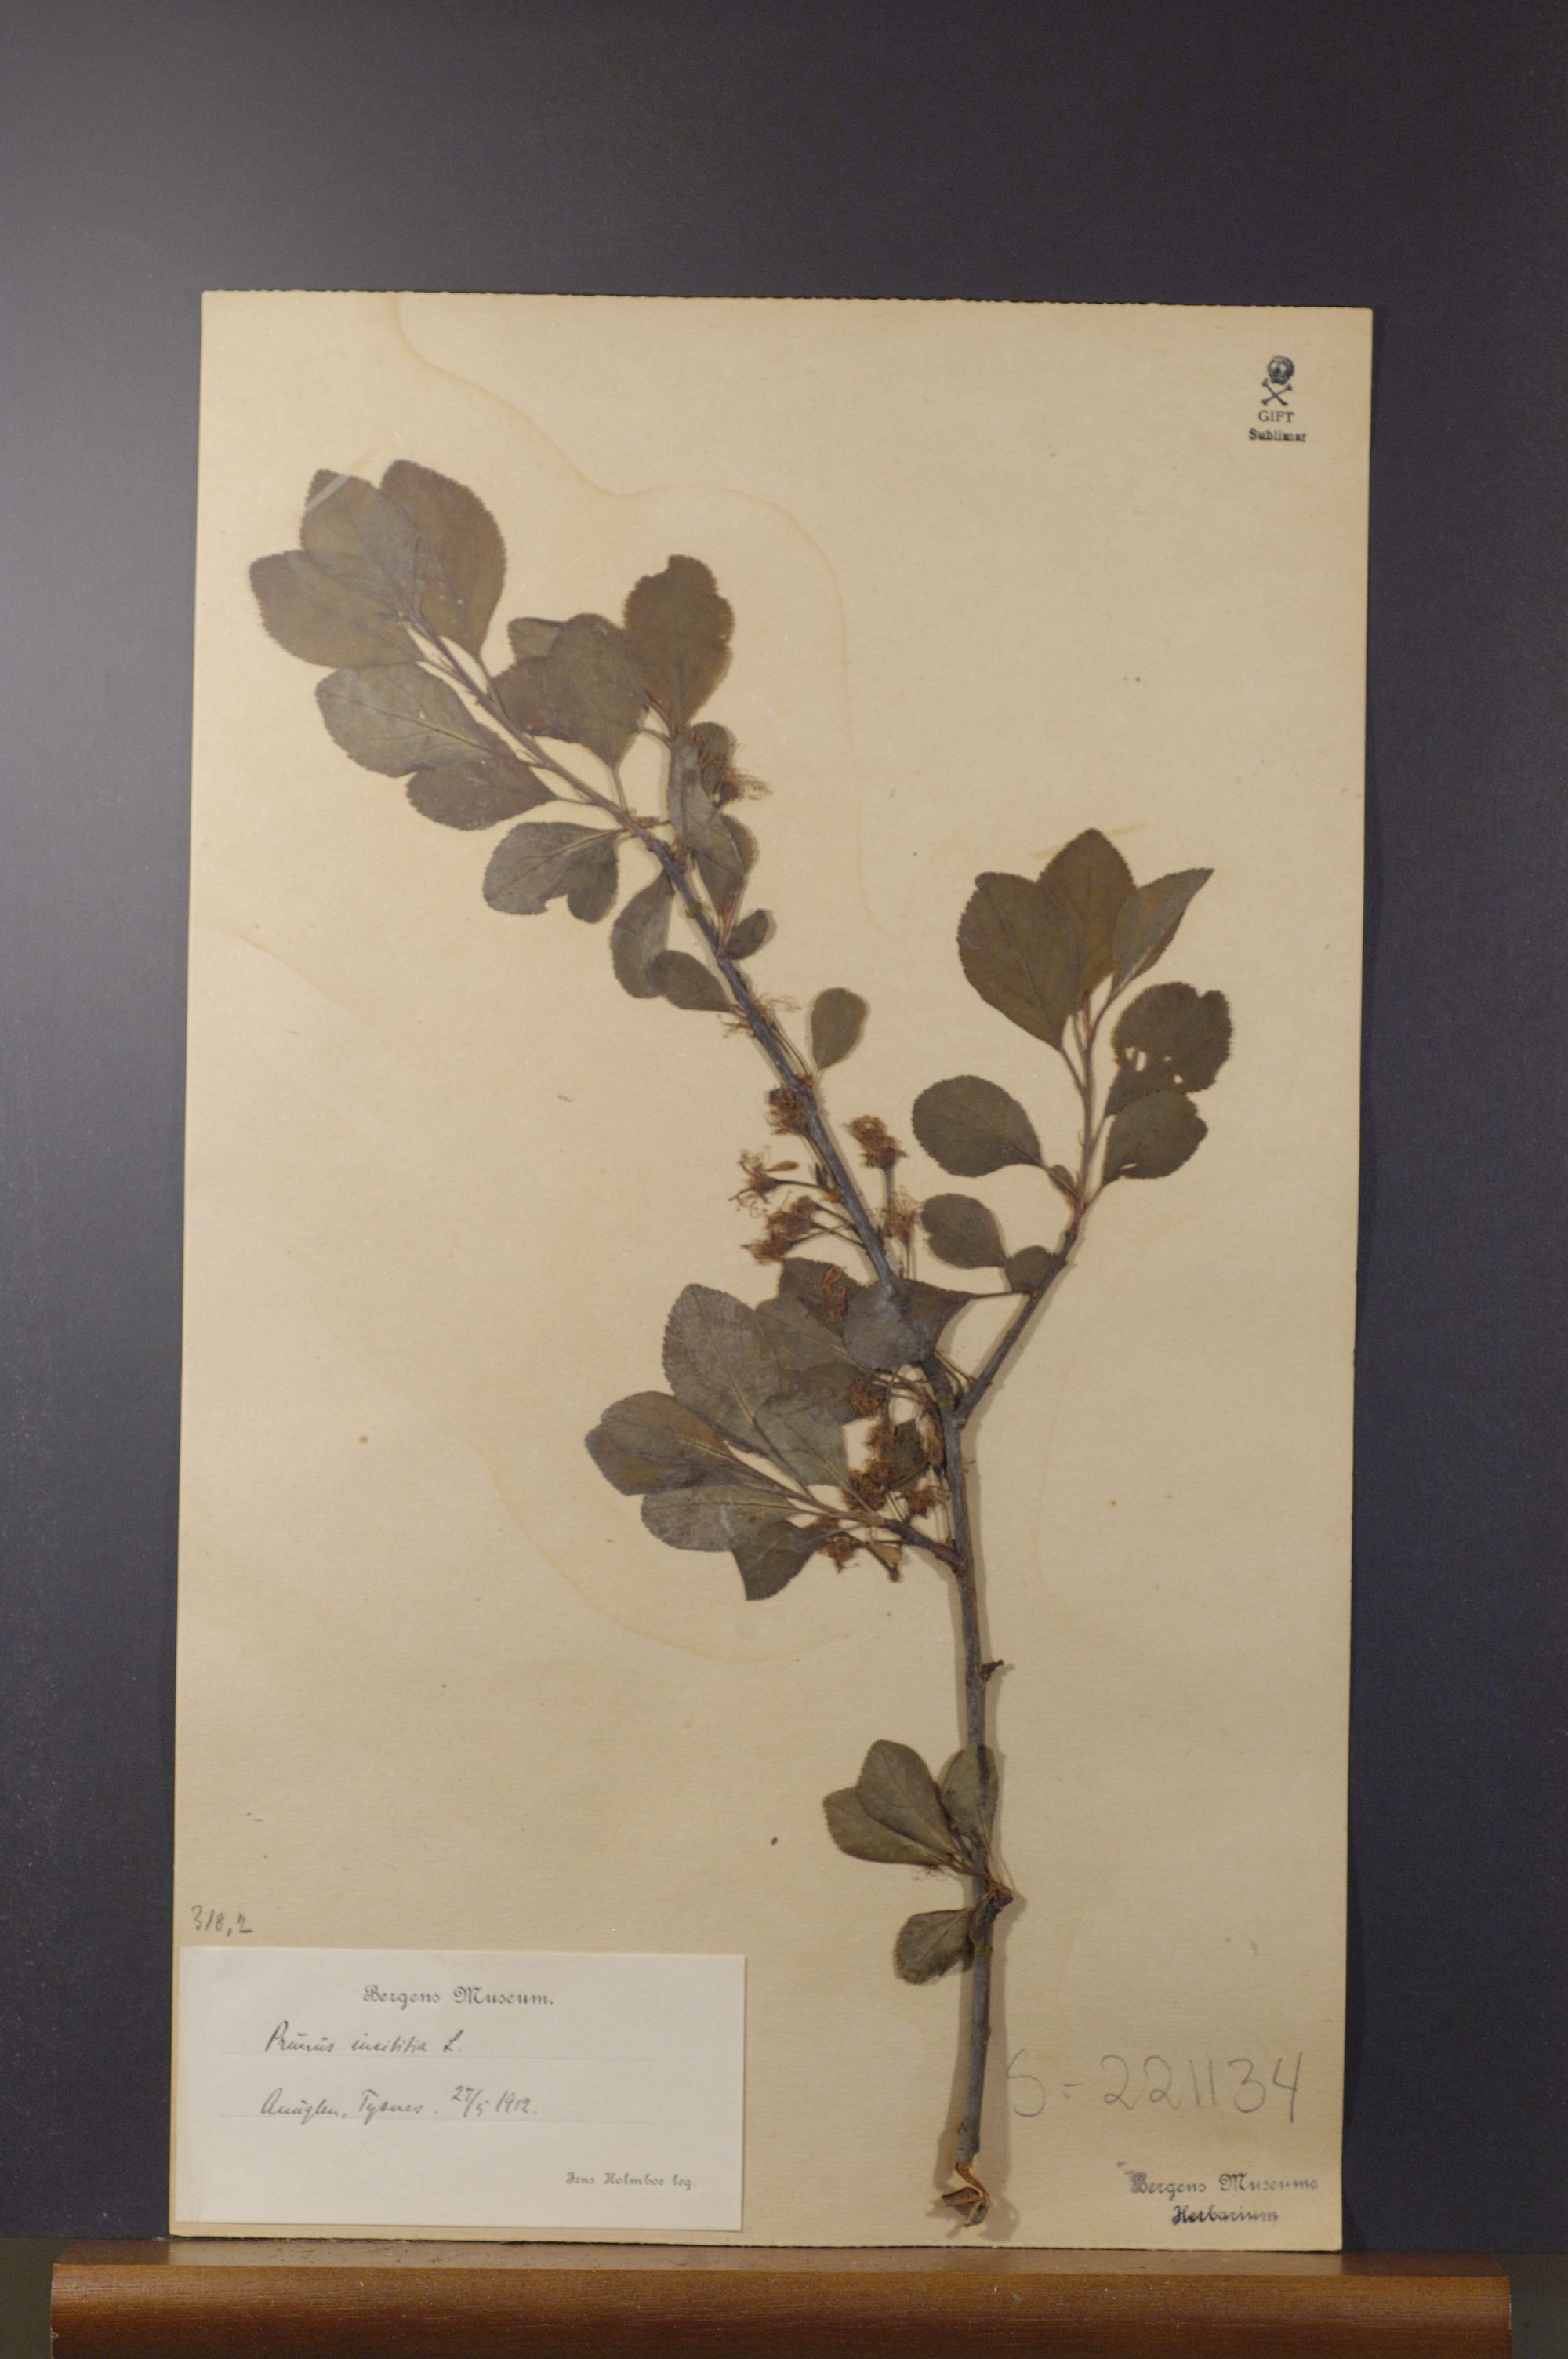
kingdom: Plantae
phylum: Tracheophyta
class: Magnoliopsida
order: Rosales
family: Rosaceae
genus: Prunus
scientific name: Prunus domestica
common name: Wild plum
